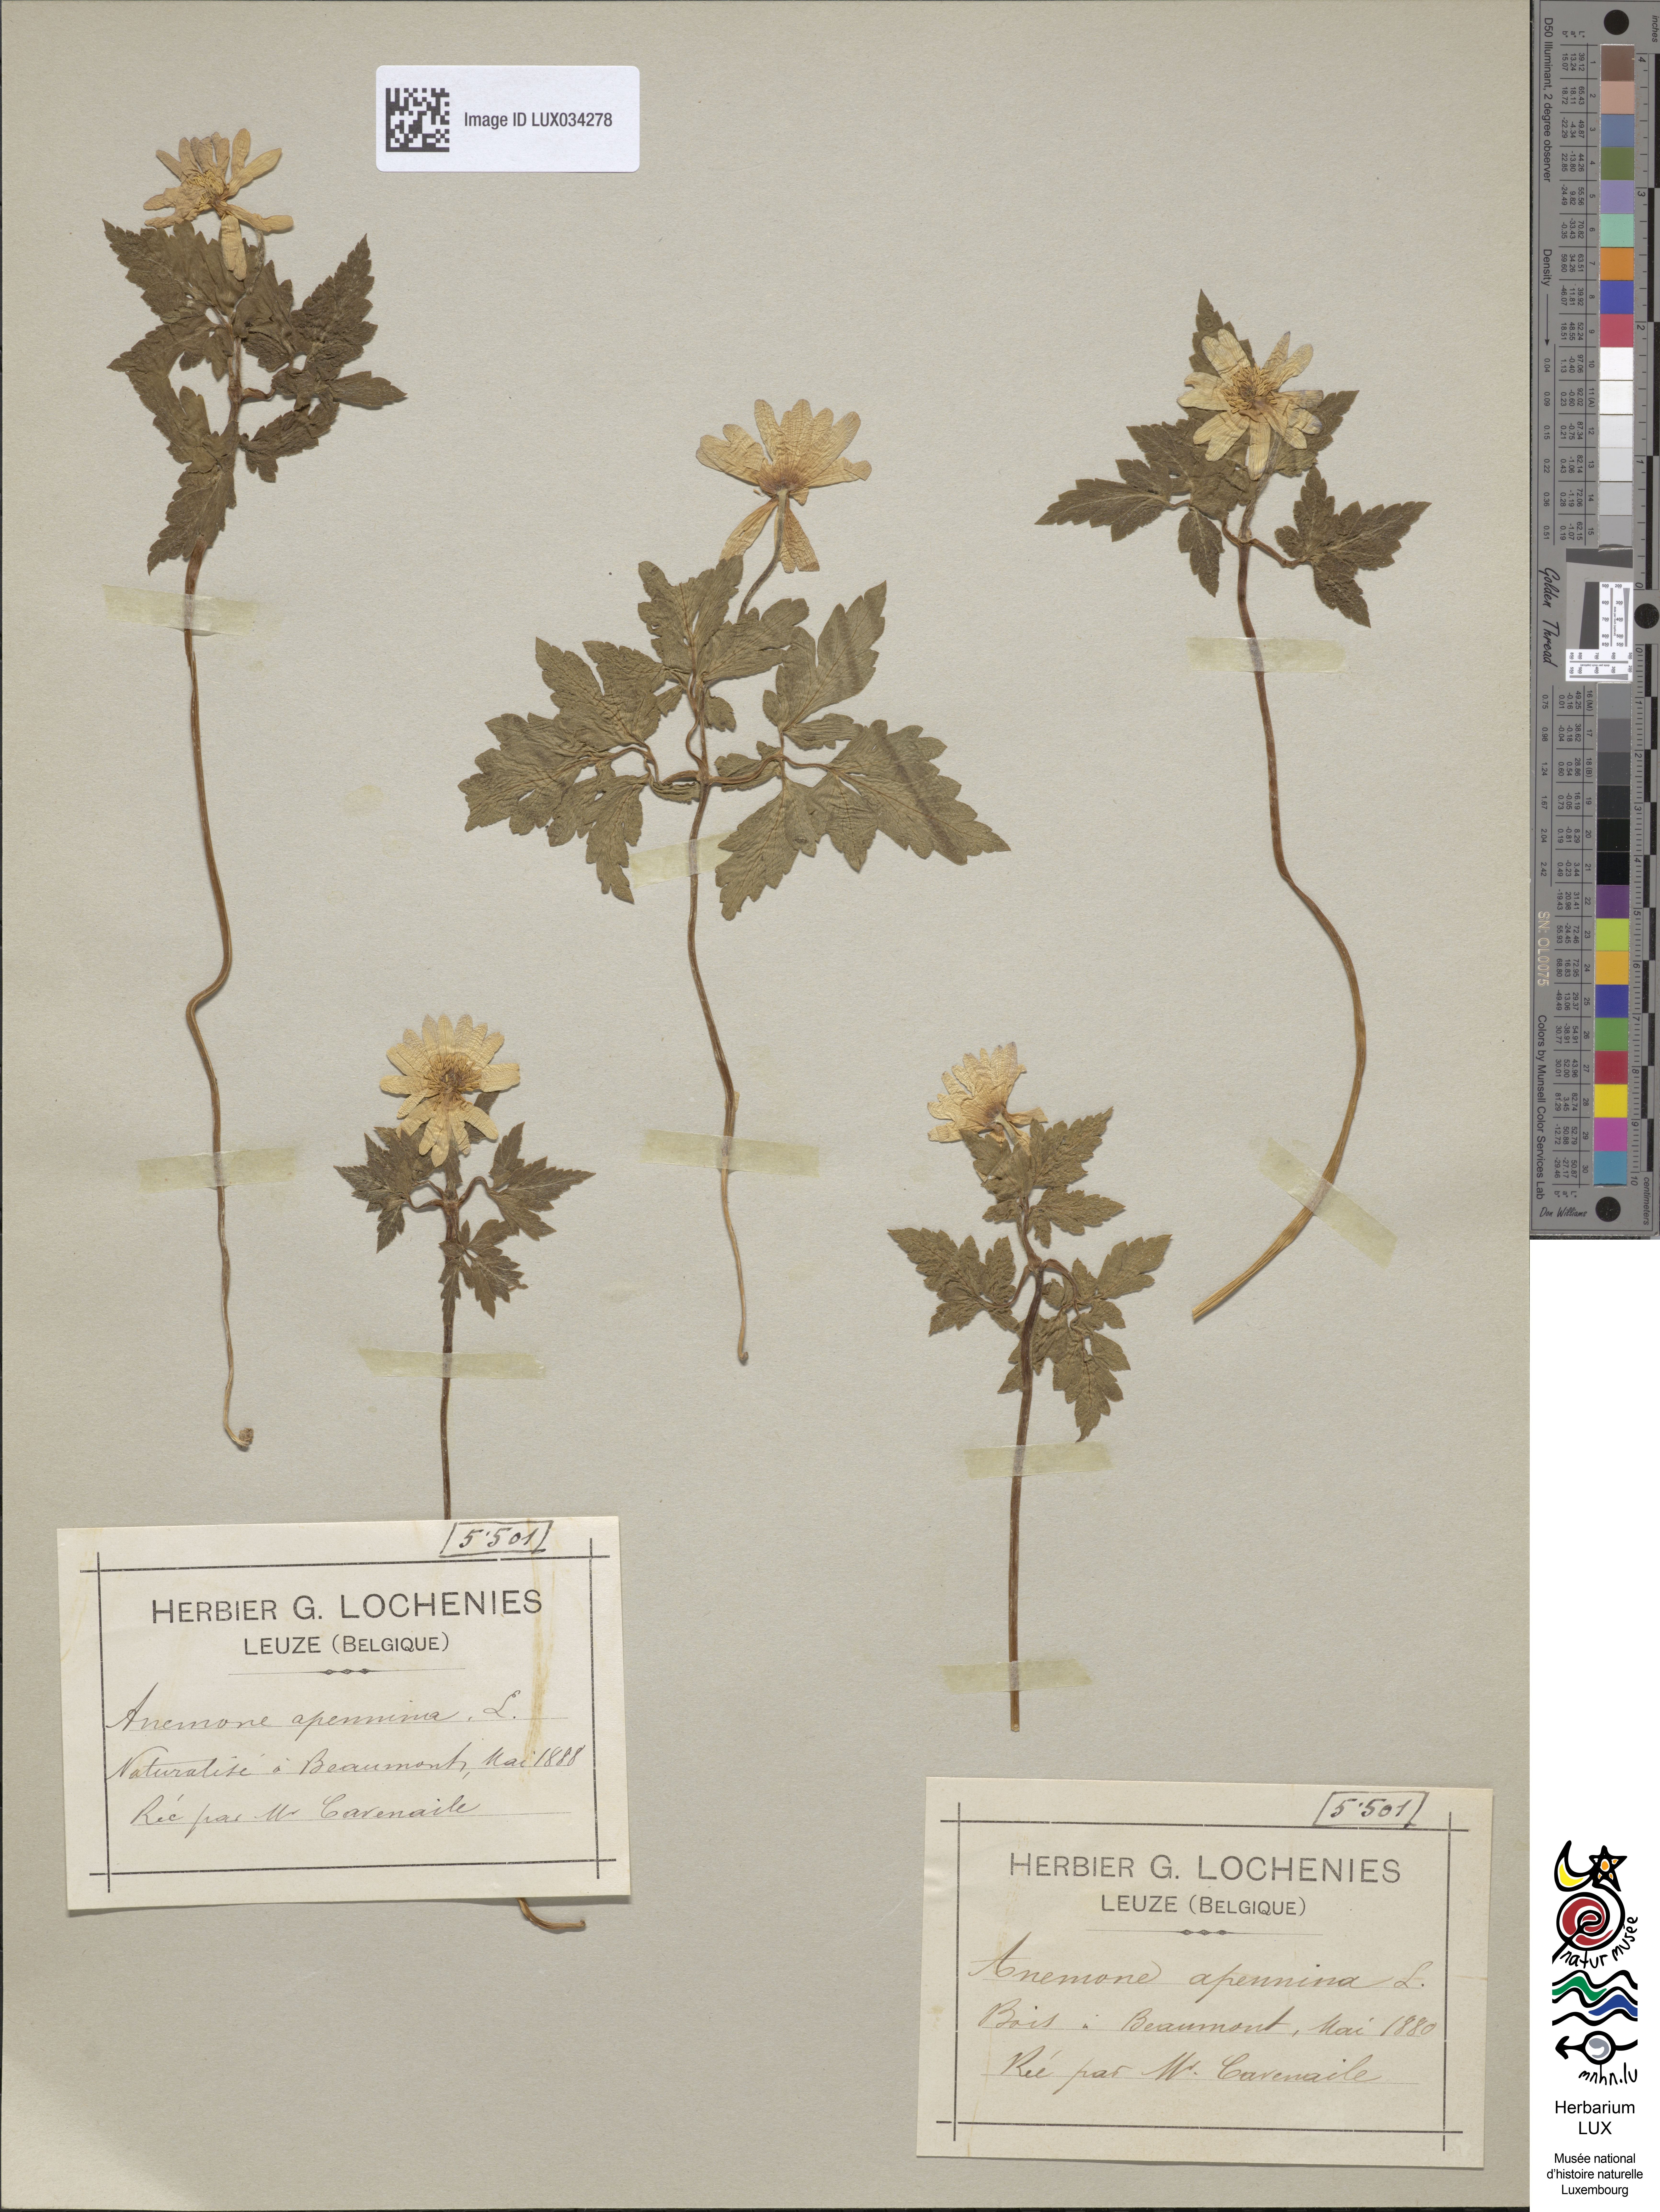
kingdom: Plantae
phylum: Tracheophyta
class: Magnoliopsida
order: Ranunculales
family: Ranunculaceae
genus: Anemone
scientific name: Anemone apennina
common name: Blue anemone
